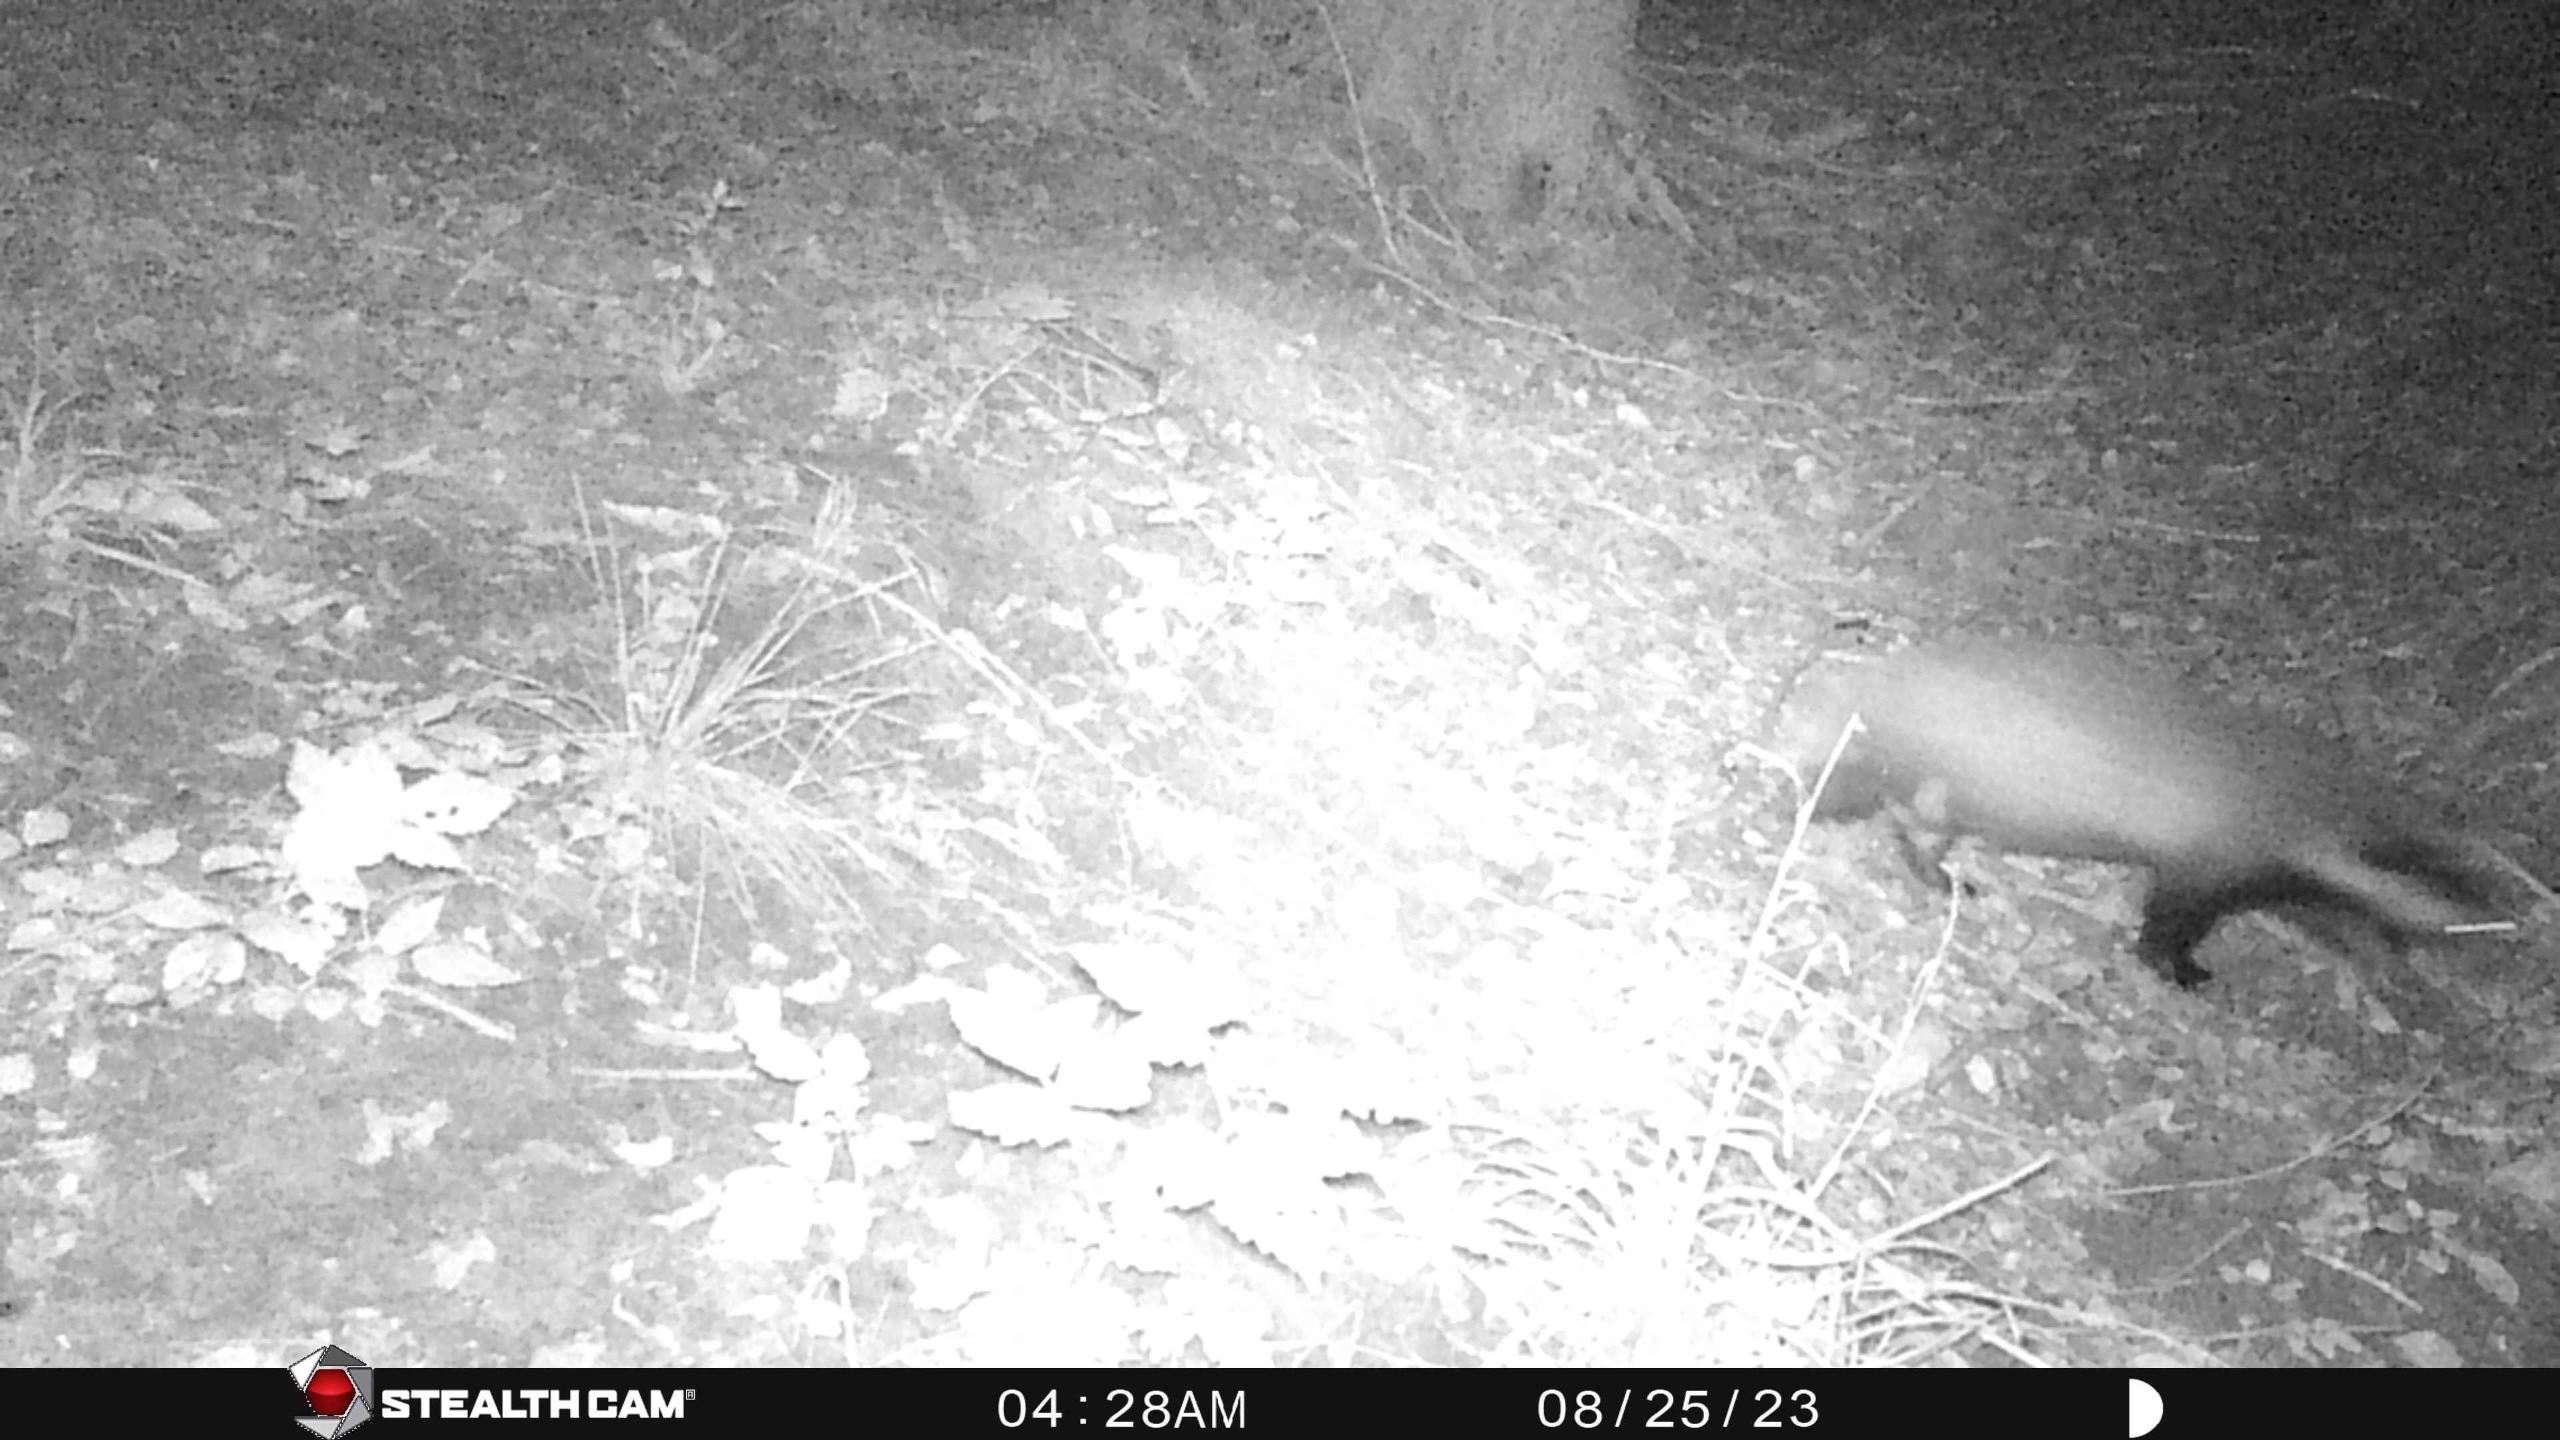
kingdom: Animalia
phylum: Chordata
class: Mammalia
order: Carnivora
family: Mustelidae
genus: Meles
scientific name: Meles meles
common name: Grævling
